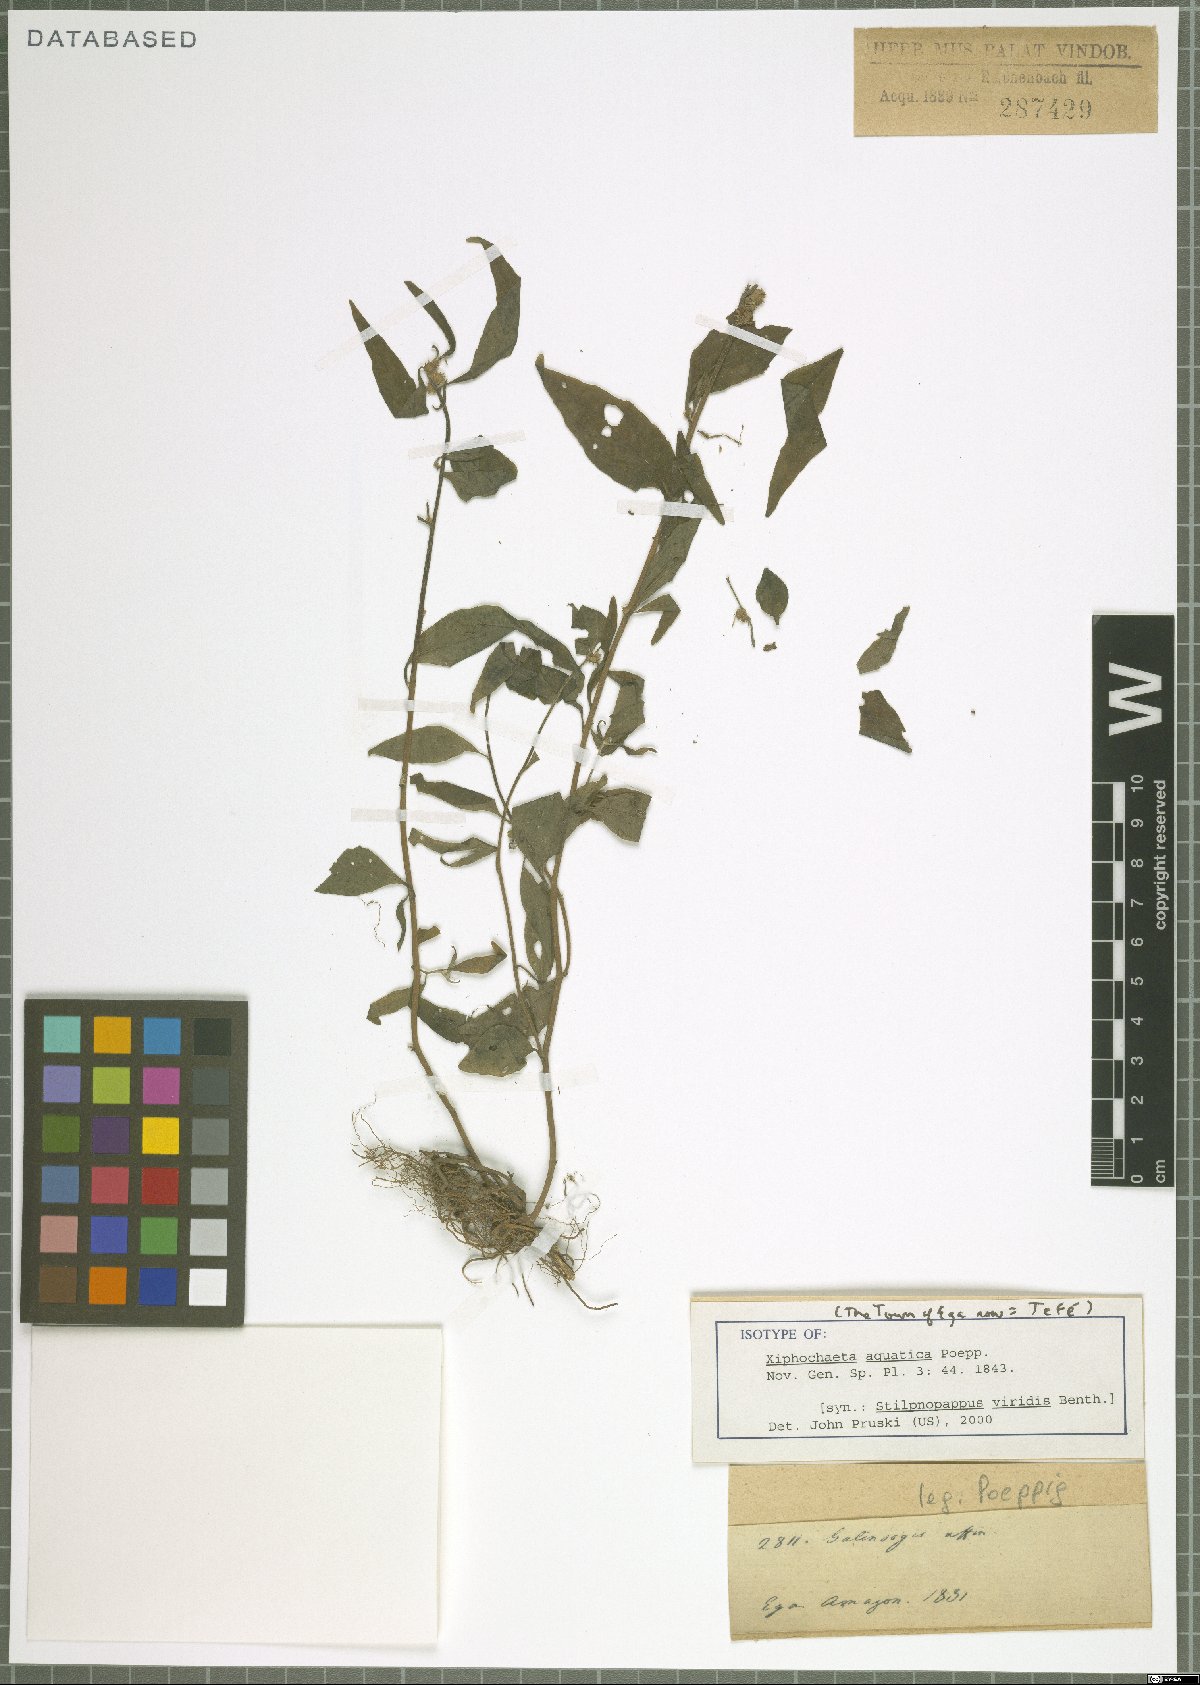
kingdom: Plantae
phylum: Tracheophyta
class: Magnoliopsida
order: Asterales
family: Asteraceae
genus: Xiphochaeta
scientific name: Xiphochaeta aquatica
